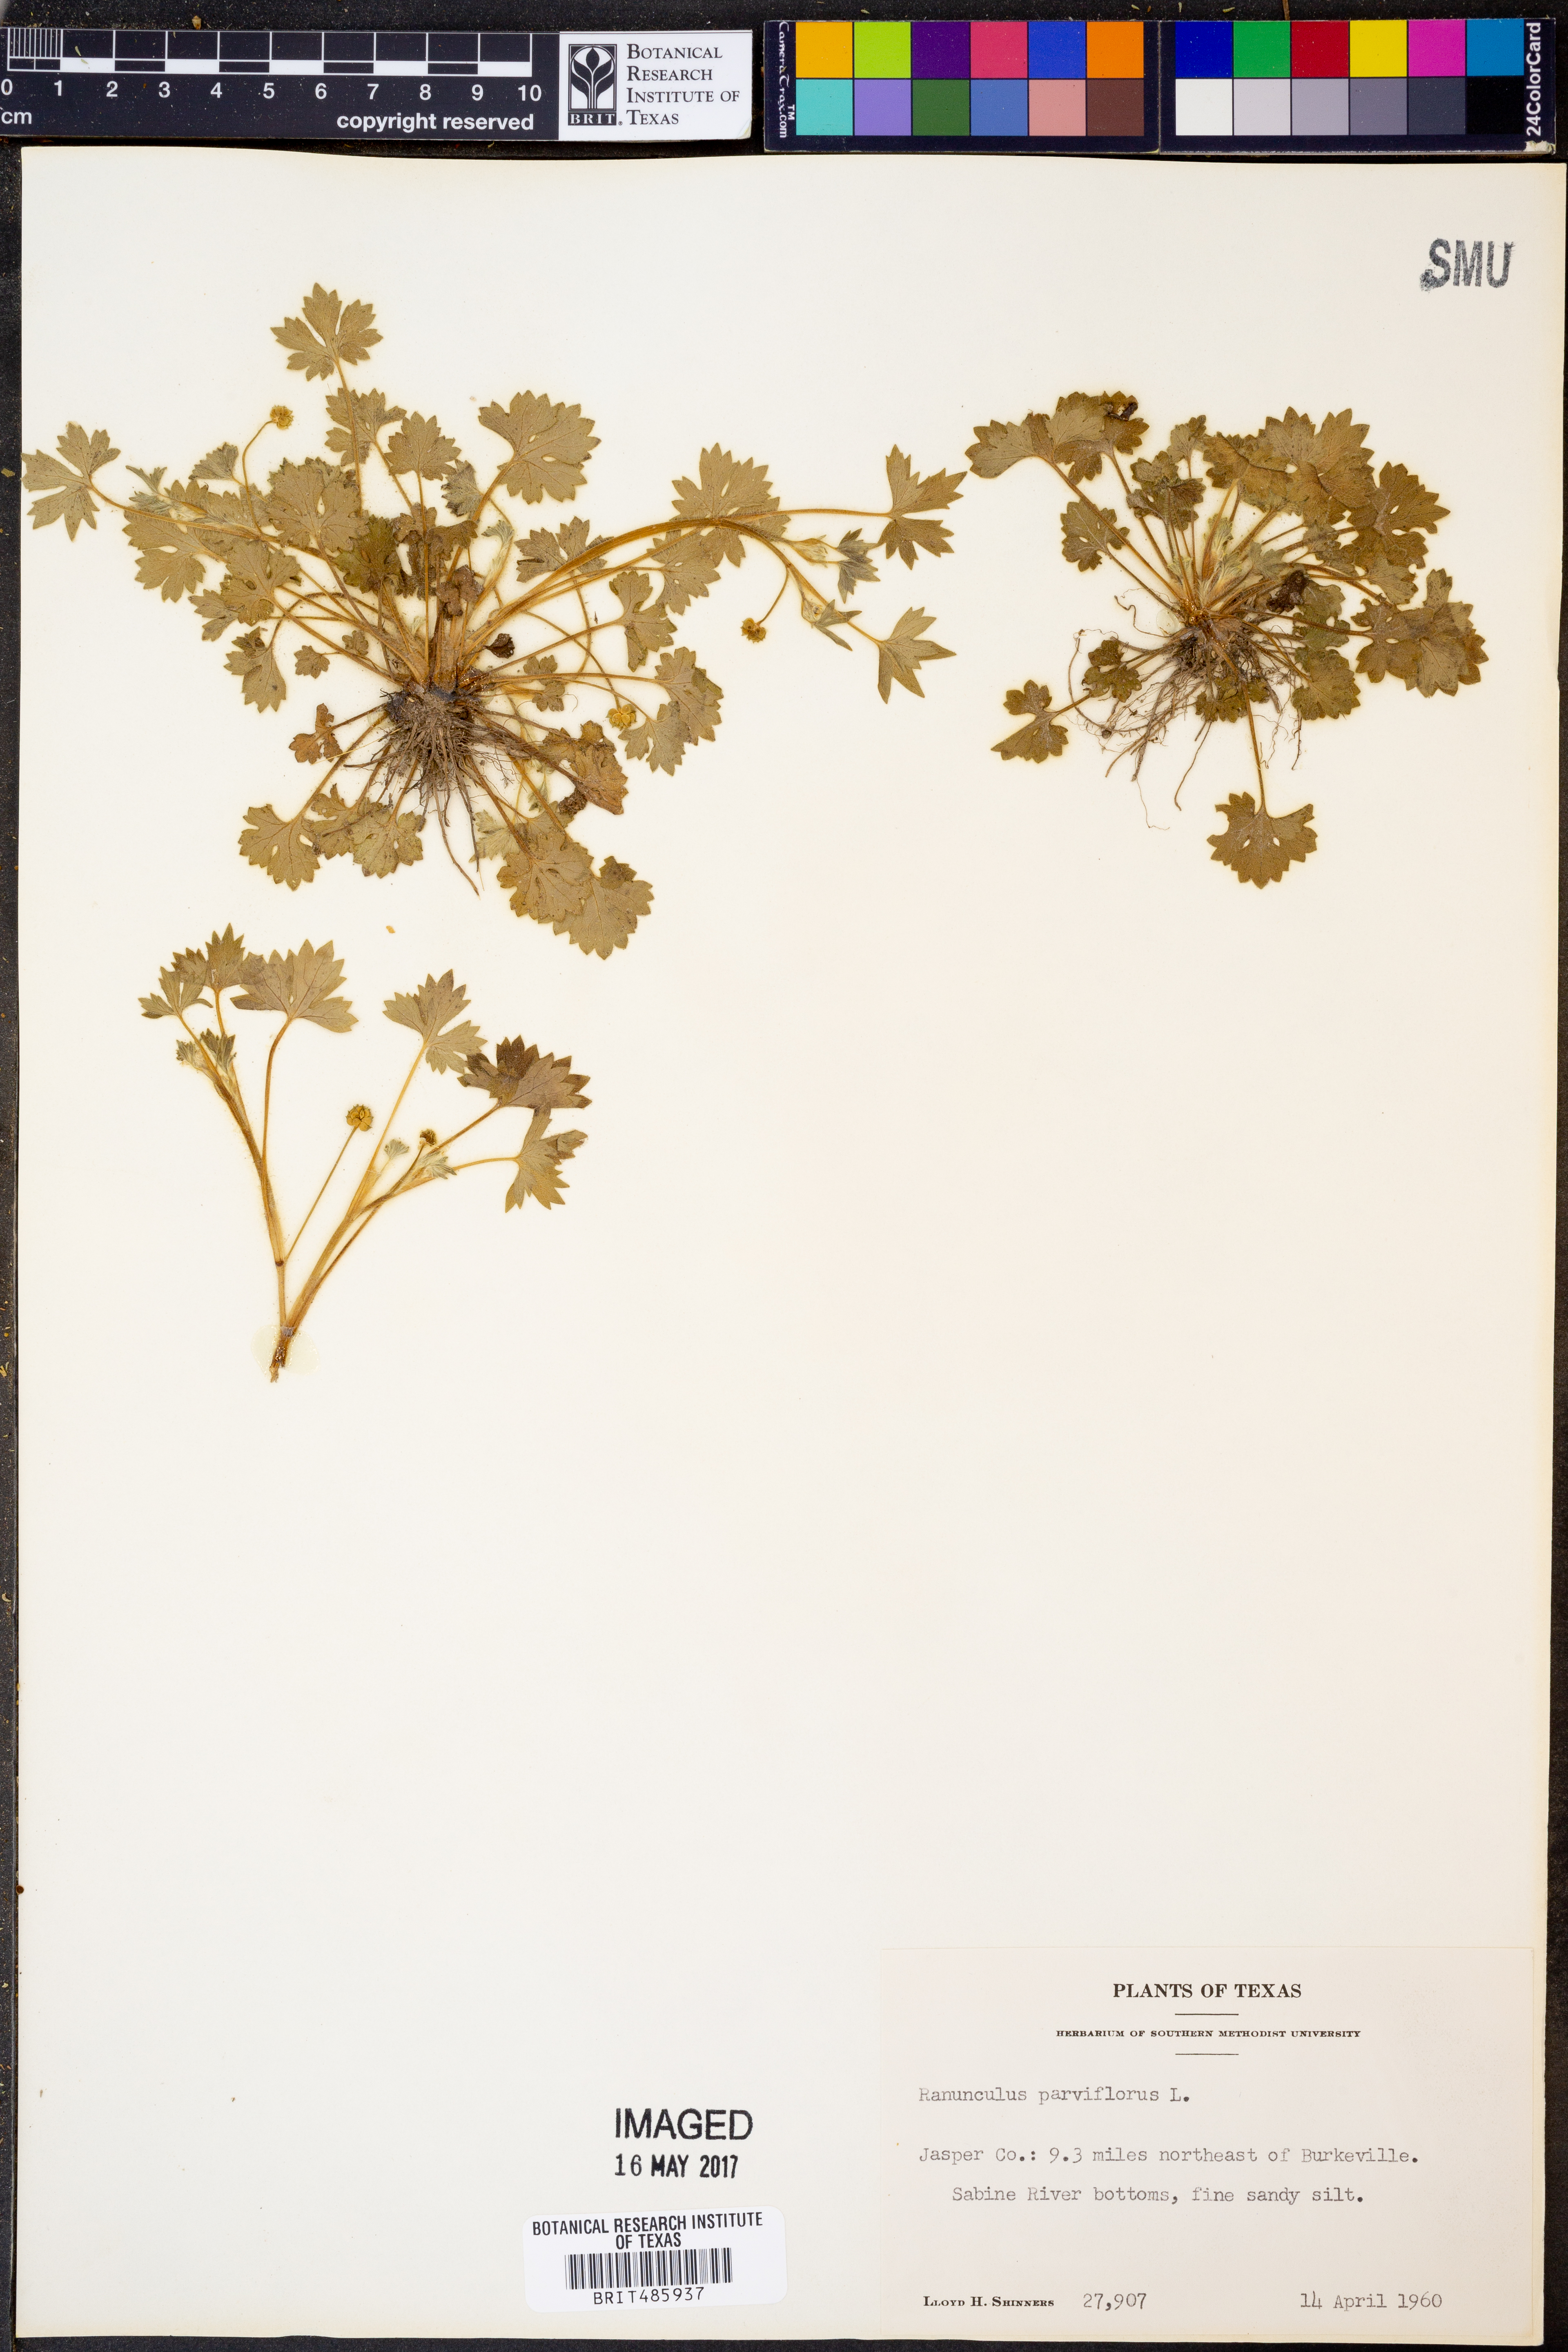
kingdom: Plantae
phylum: Tracheophyta
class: Magnoliopsida
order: Ranunculales
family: Ranunculaceae
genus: Ranunculus
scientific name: Ranunculus parviflorus
